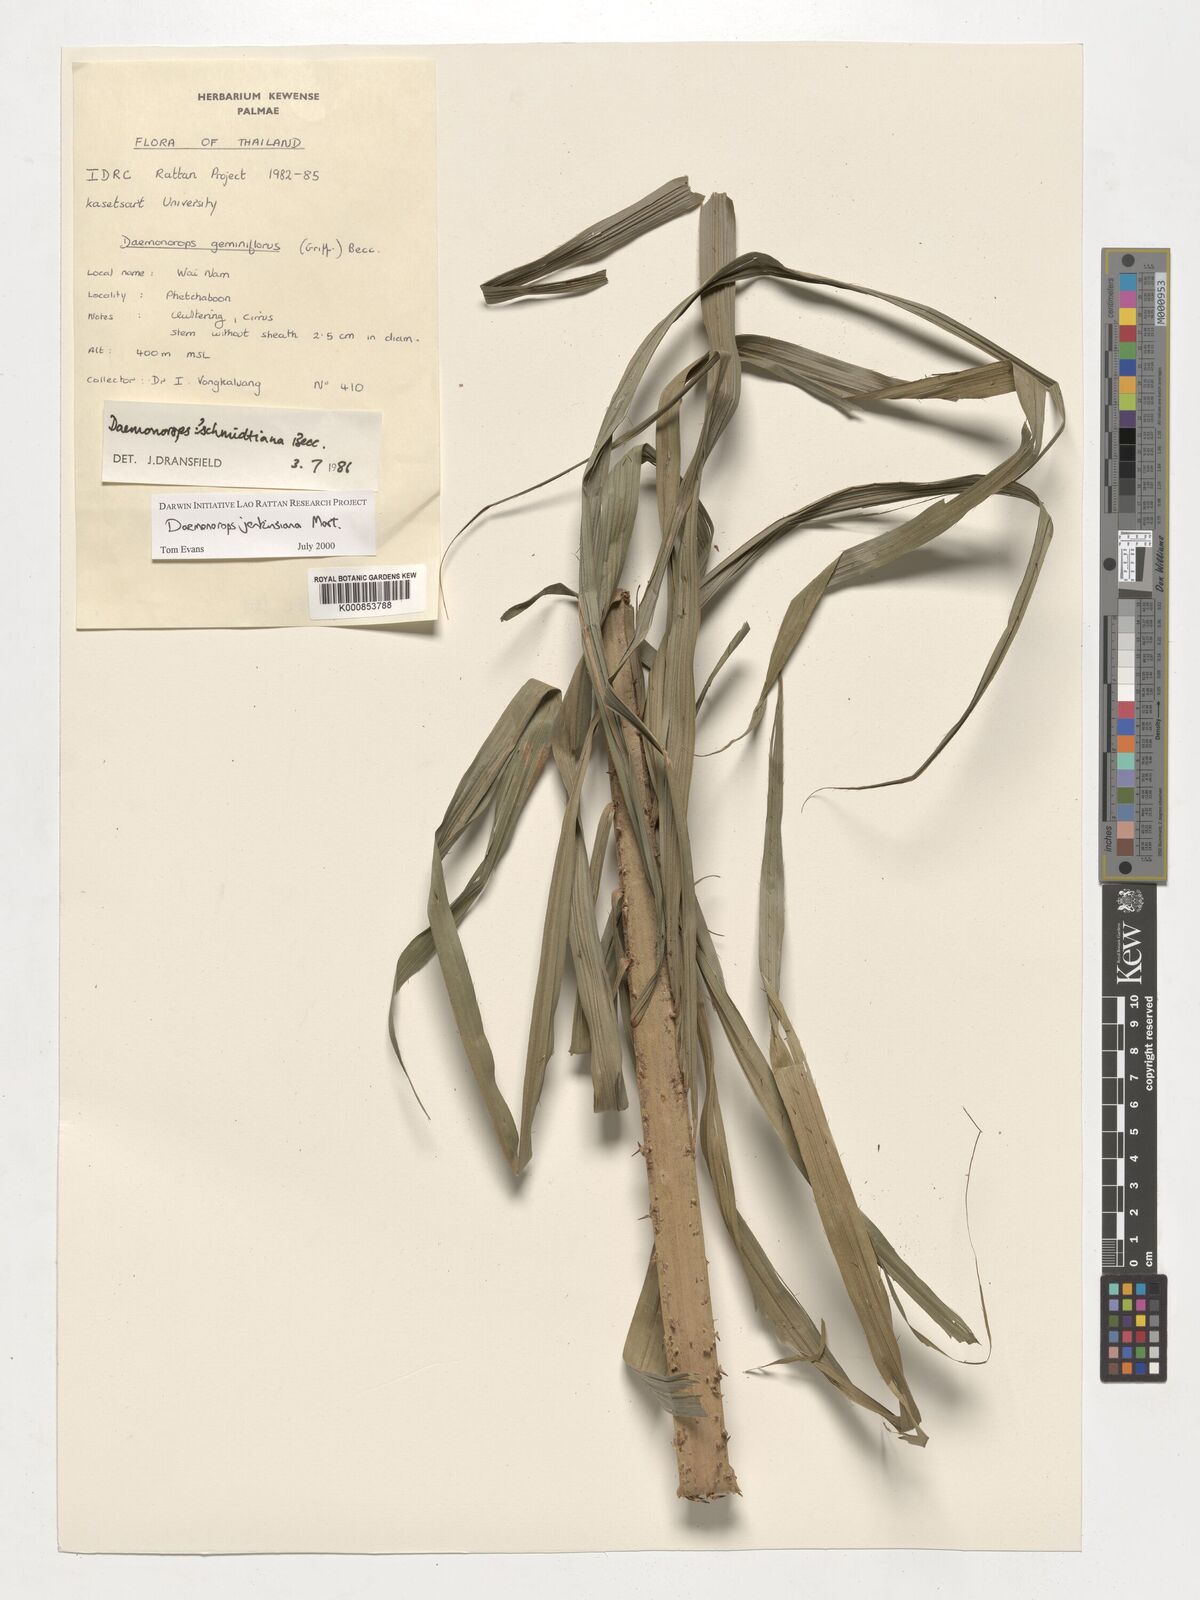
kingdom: Plantae
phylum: Tracheophyta
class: Liliopsida
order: Arecales
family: Arecaceae
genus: Calamus
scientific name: Calamus melanochaetes
